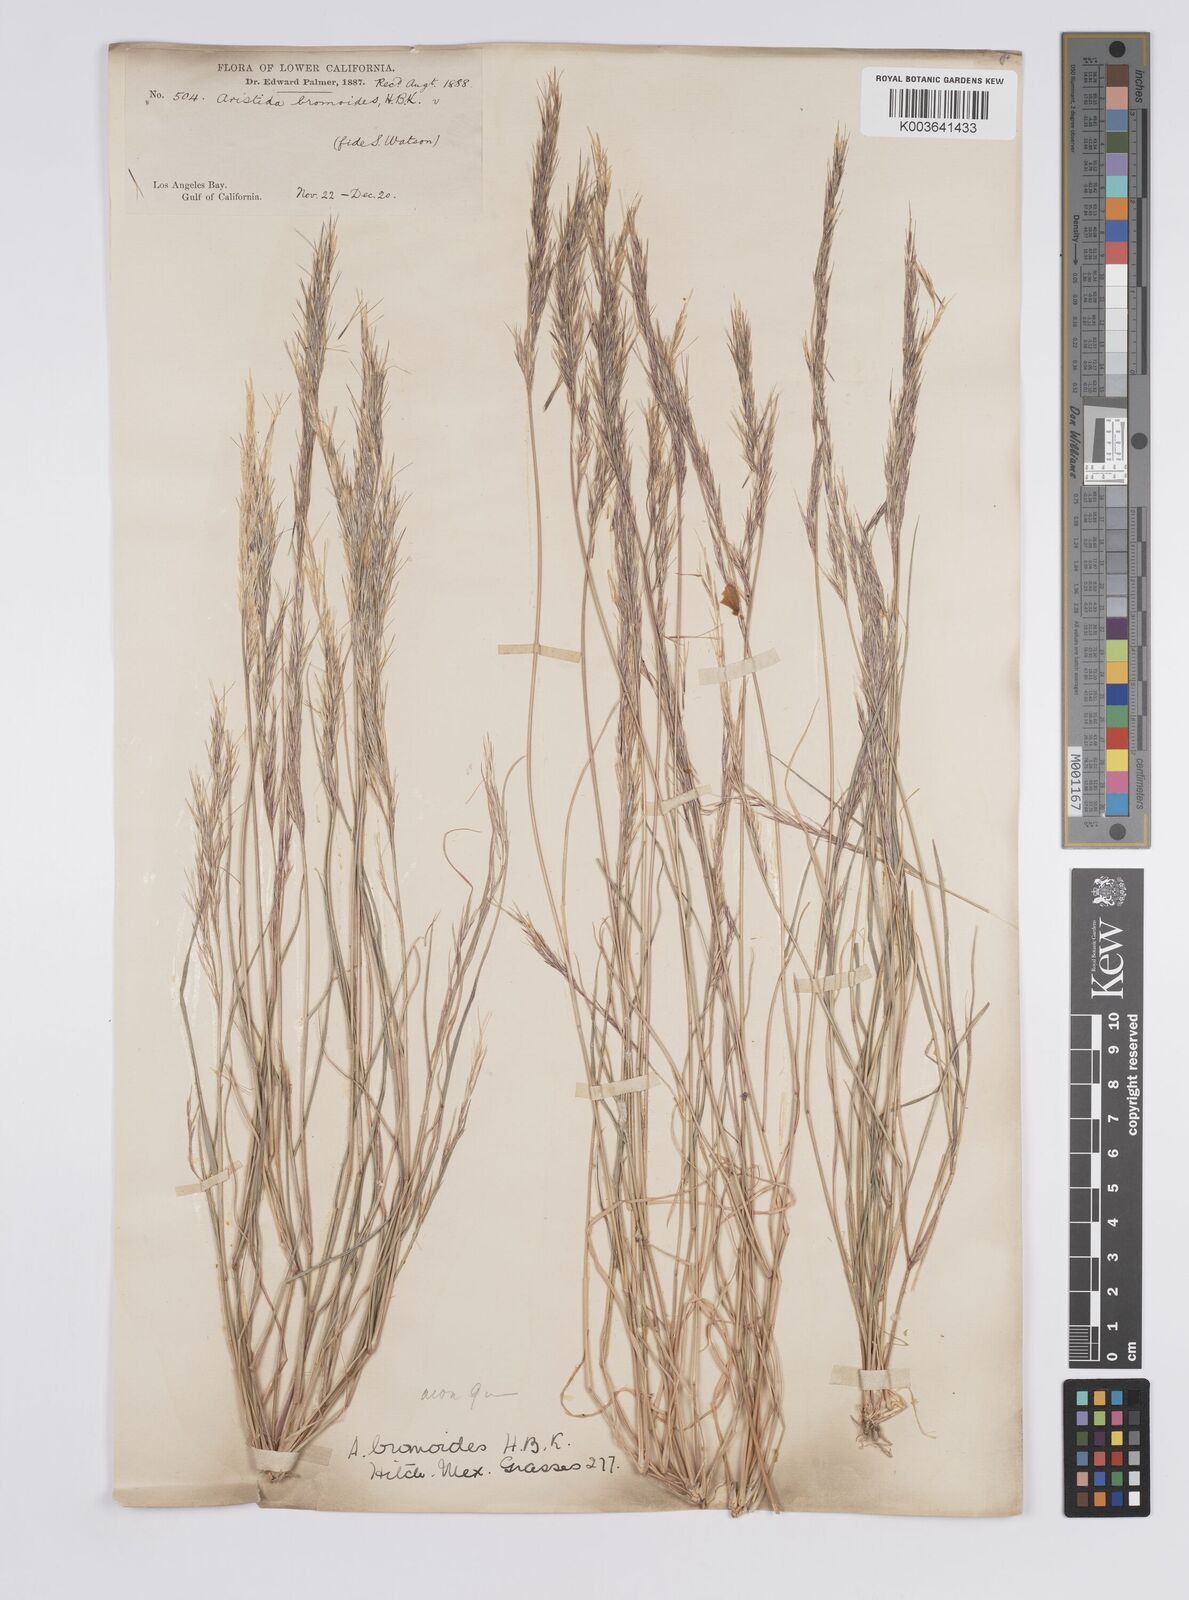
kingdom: Plantae
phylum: Tracheophyta
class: Liliopsida
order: Poales
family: Poaceae
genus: Aristida
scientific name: Aristida adscensionis
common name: Sixweeks threeawn
